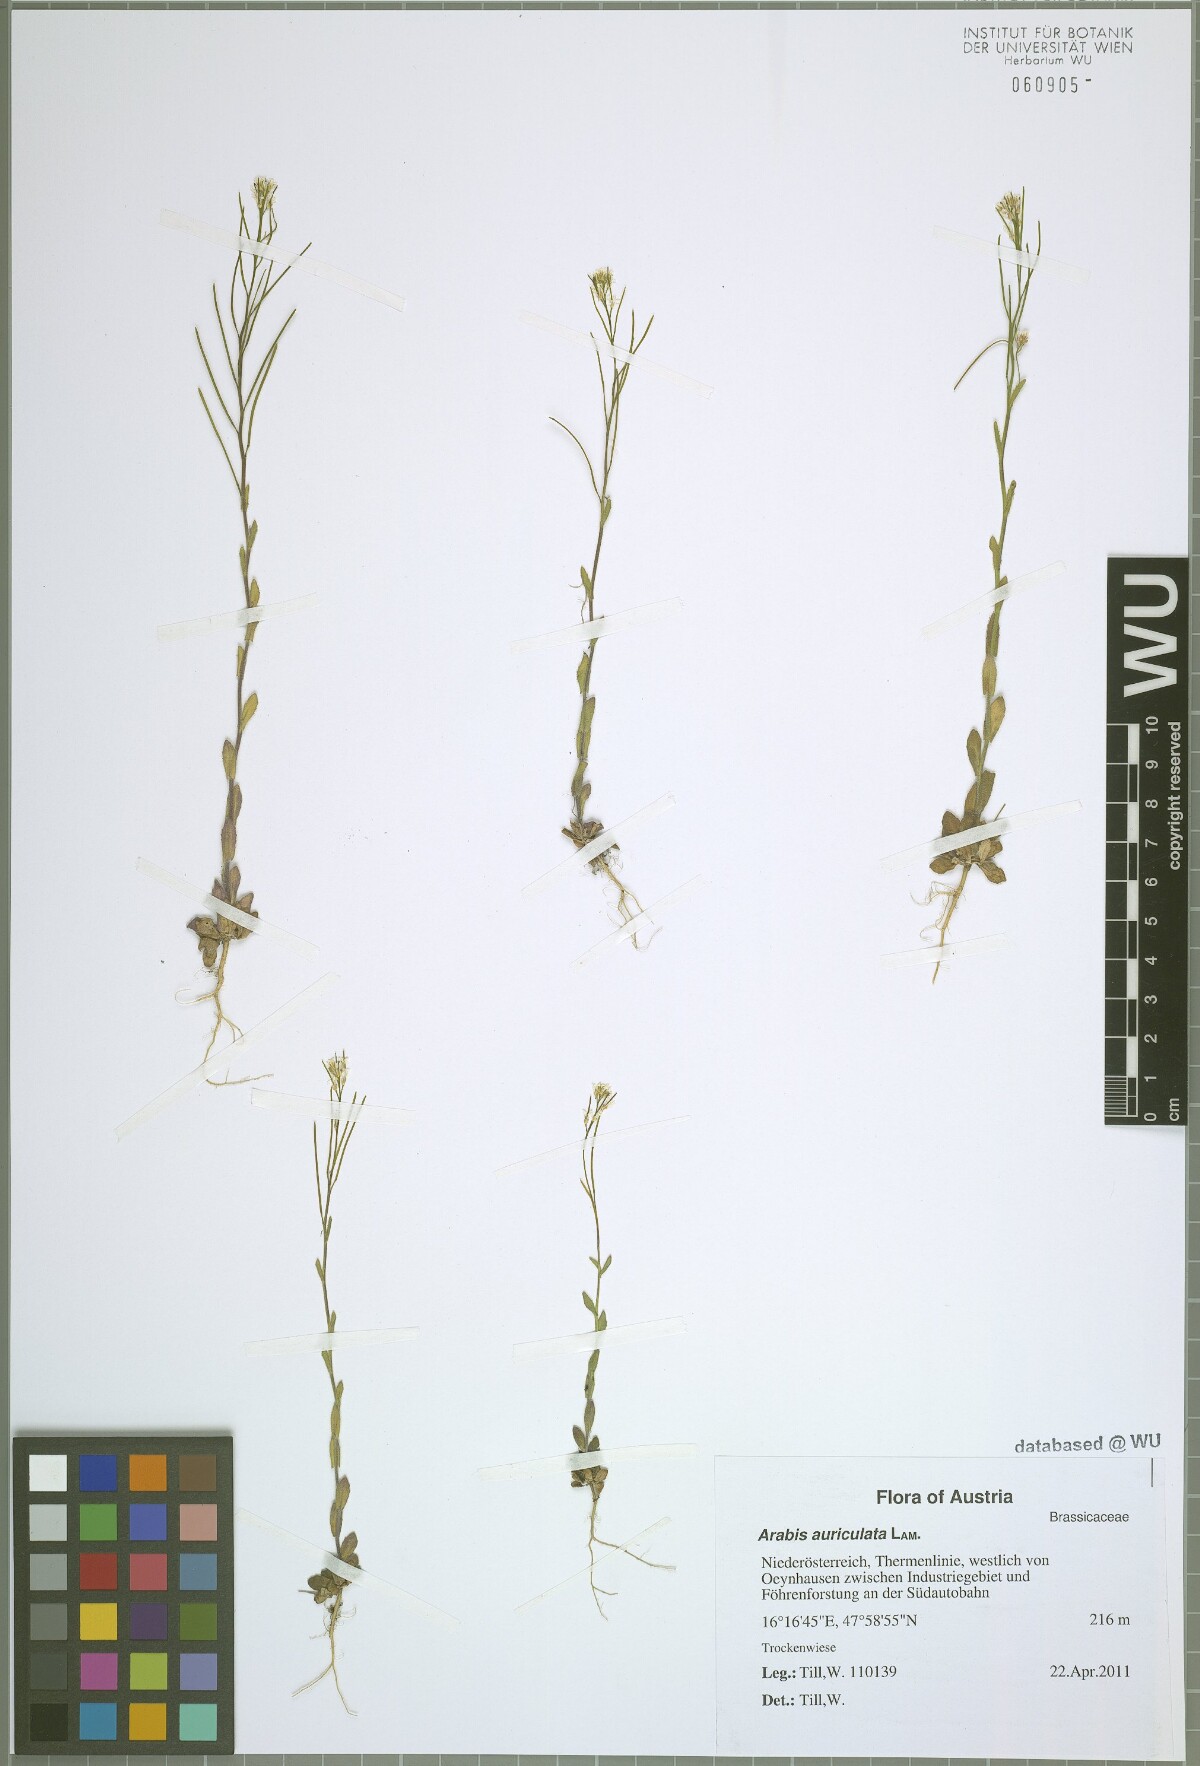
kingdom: Plantae
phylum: Tracheophyta
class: Magnoliopsida
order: Brassicales
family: Brassicaceae
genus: Arabis
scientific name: Arabis auriculata
